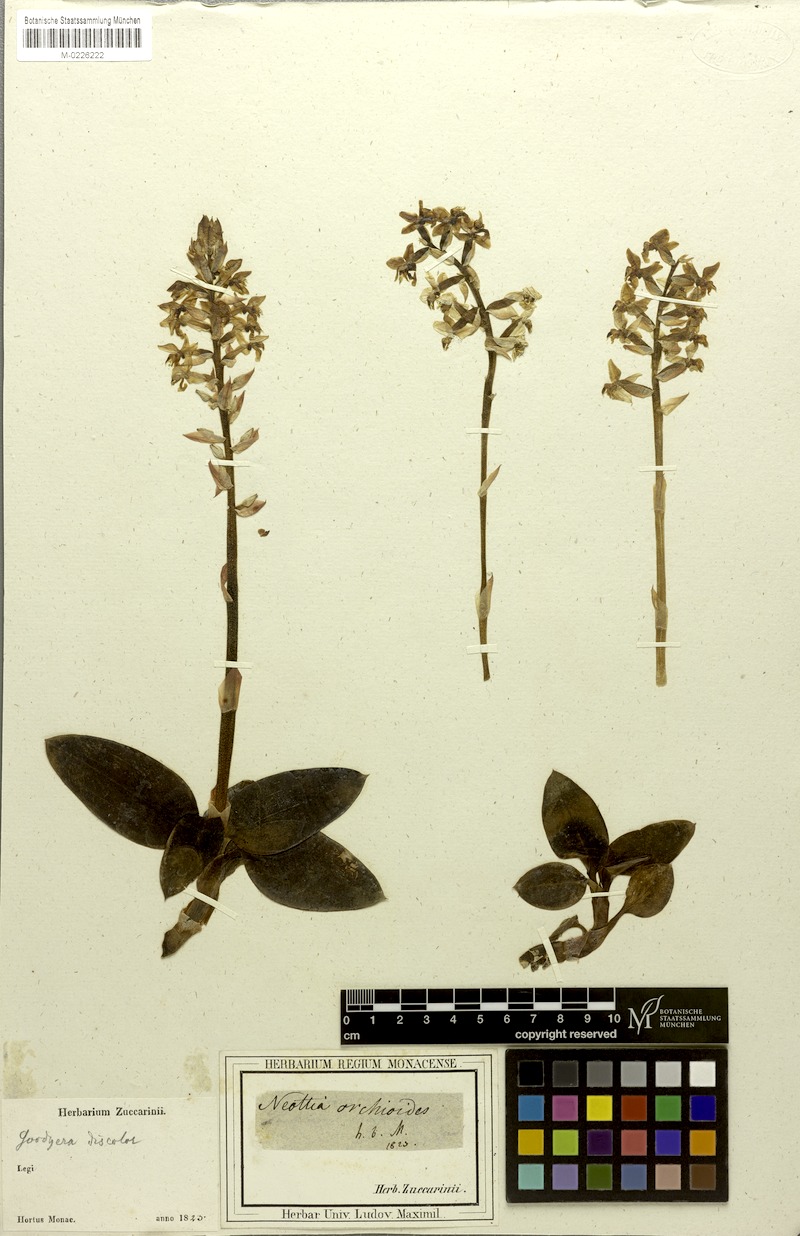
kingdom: Plantae
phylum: Tracheophyta
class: Liliopsida
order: Asparagales
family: Orchidaceae
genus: Ludisia
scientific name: Ludisia discolor
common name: Jewel orchid
